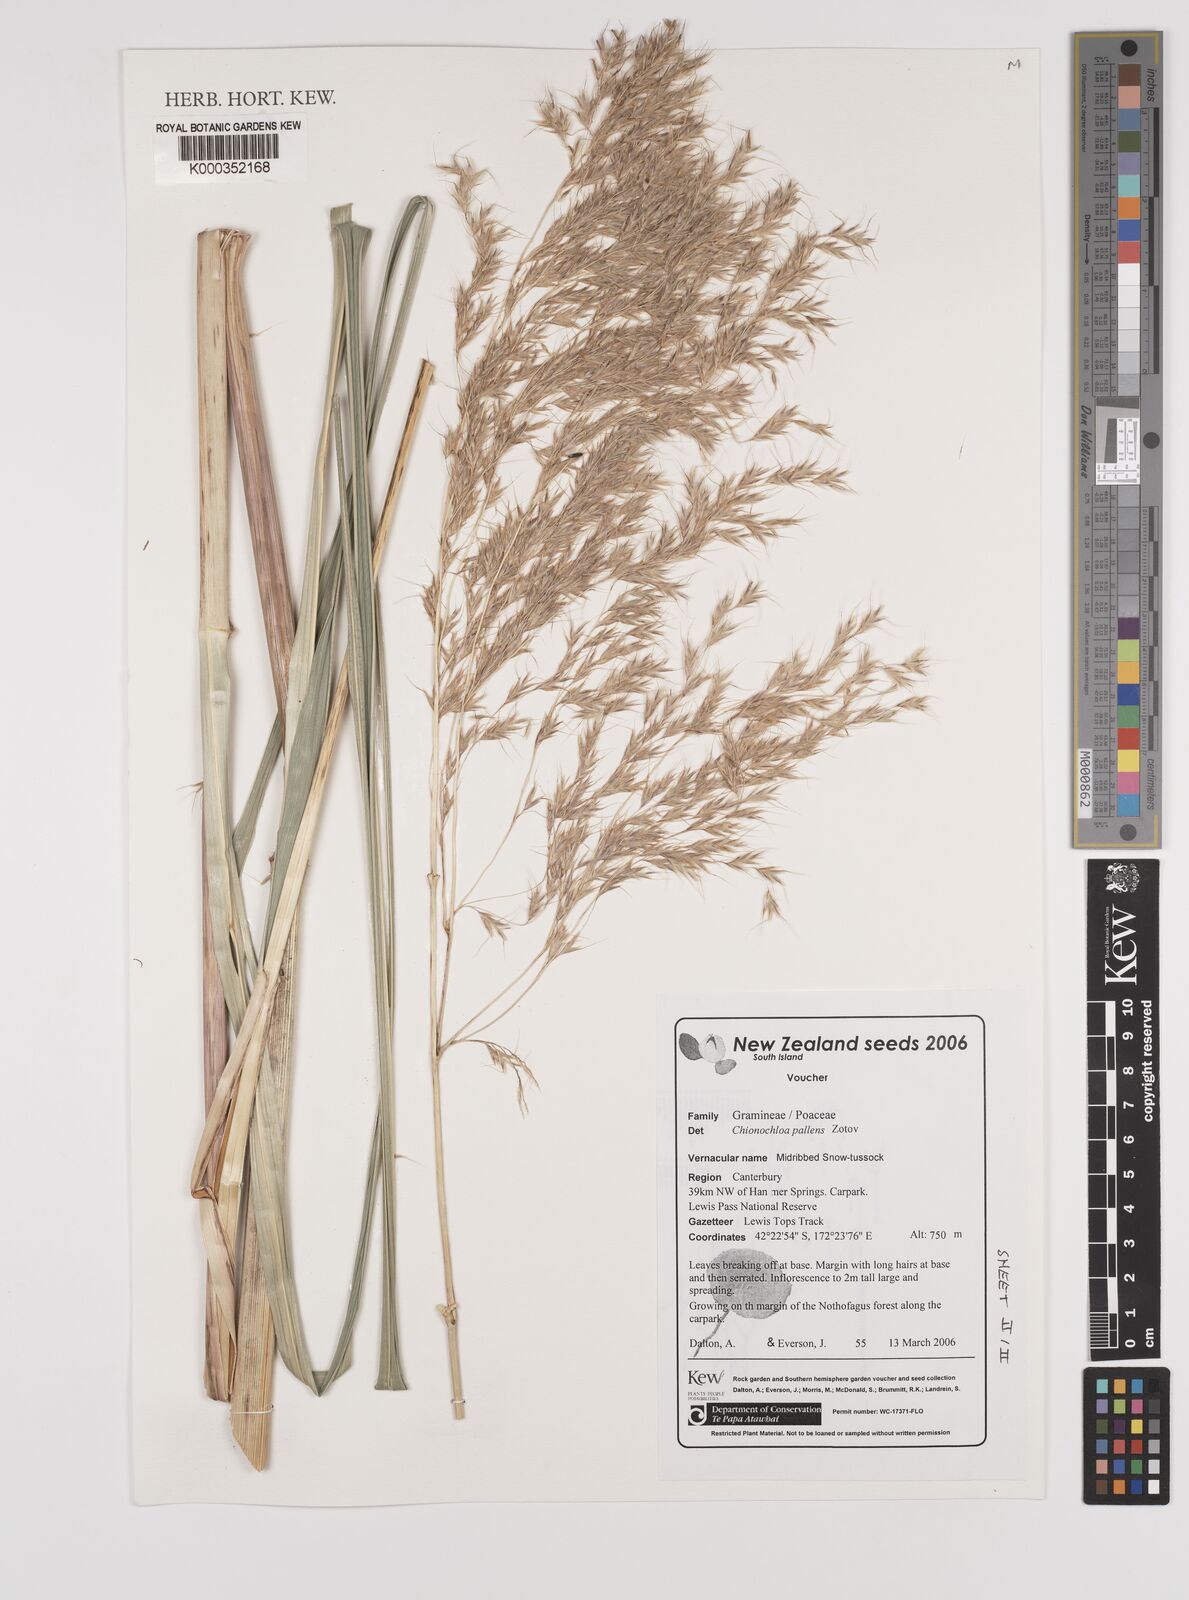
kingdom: Plantae
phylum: Tracheophyta
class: Liliopsida
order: Poales
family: Poaceae
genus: Chionochloa
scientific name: Chionochloa pallens
